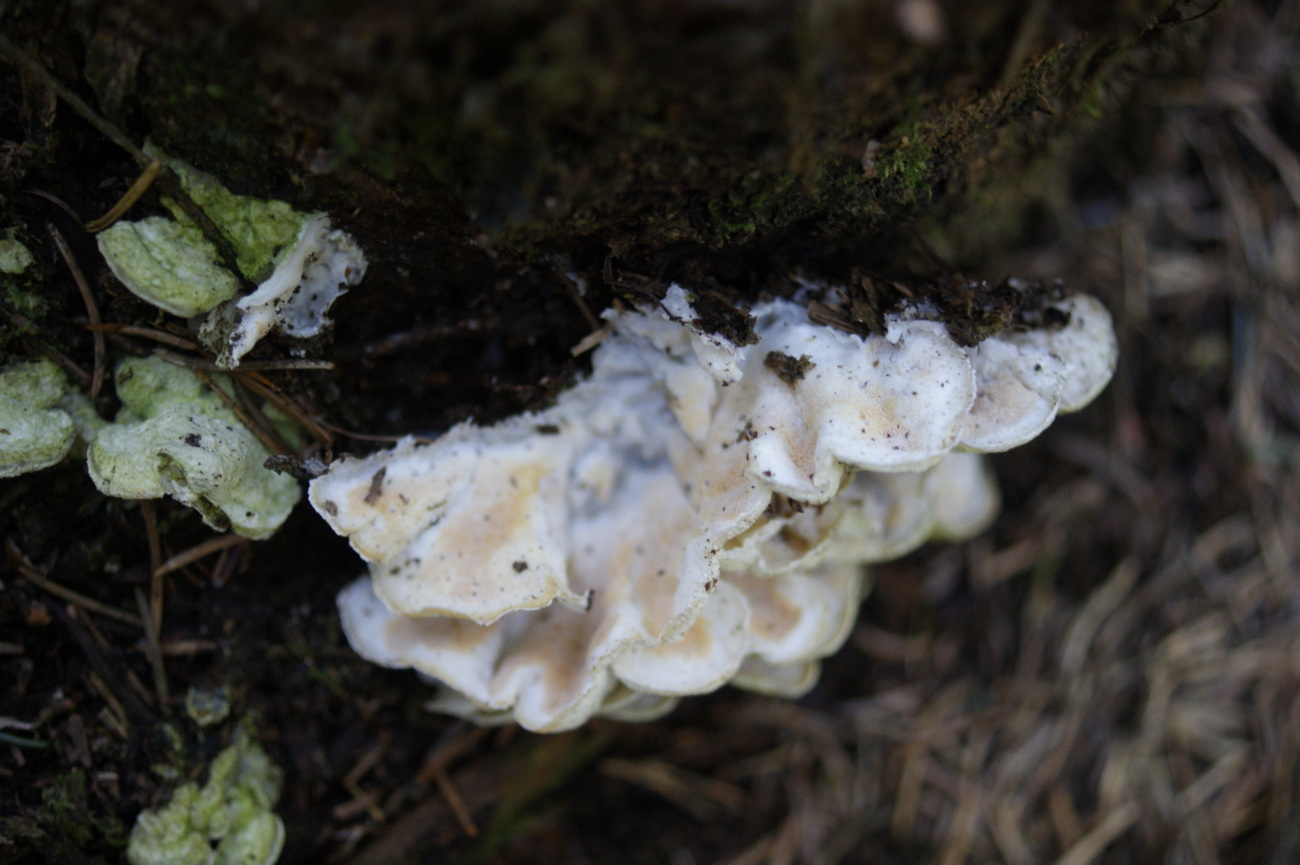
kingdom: Fungi
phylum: Basidiomycota
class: Agaricomycetes
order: Polyporales
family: Incrustoporiaceae
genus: Skeletocutis
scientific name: Skeletocutis amorpha
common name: orange krystalporesvamp
